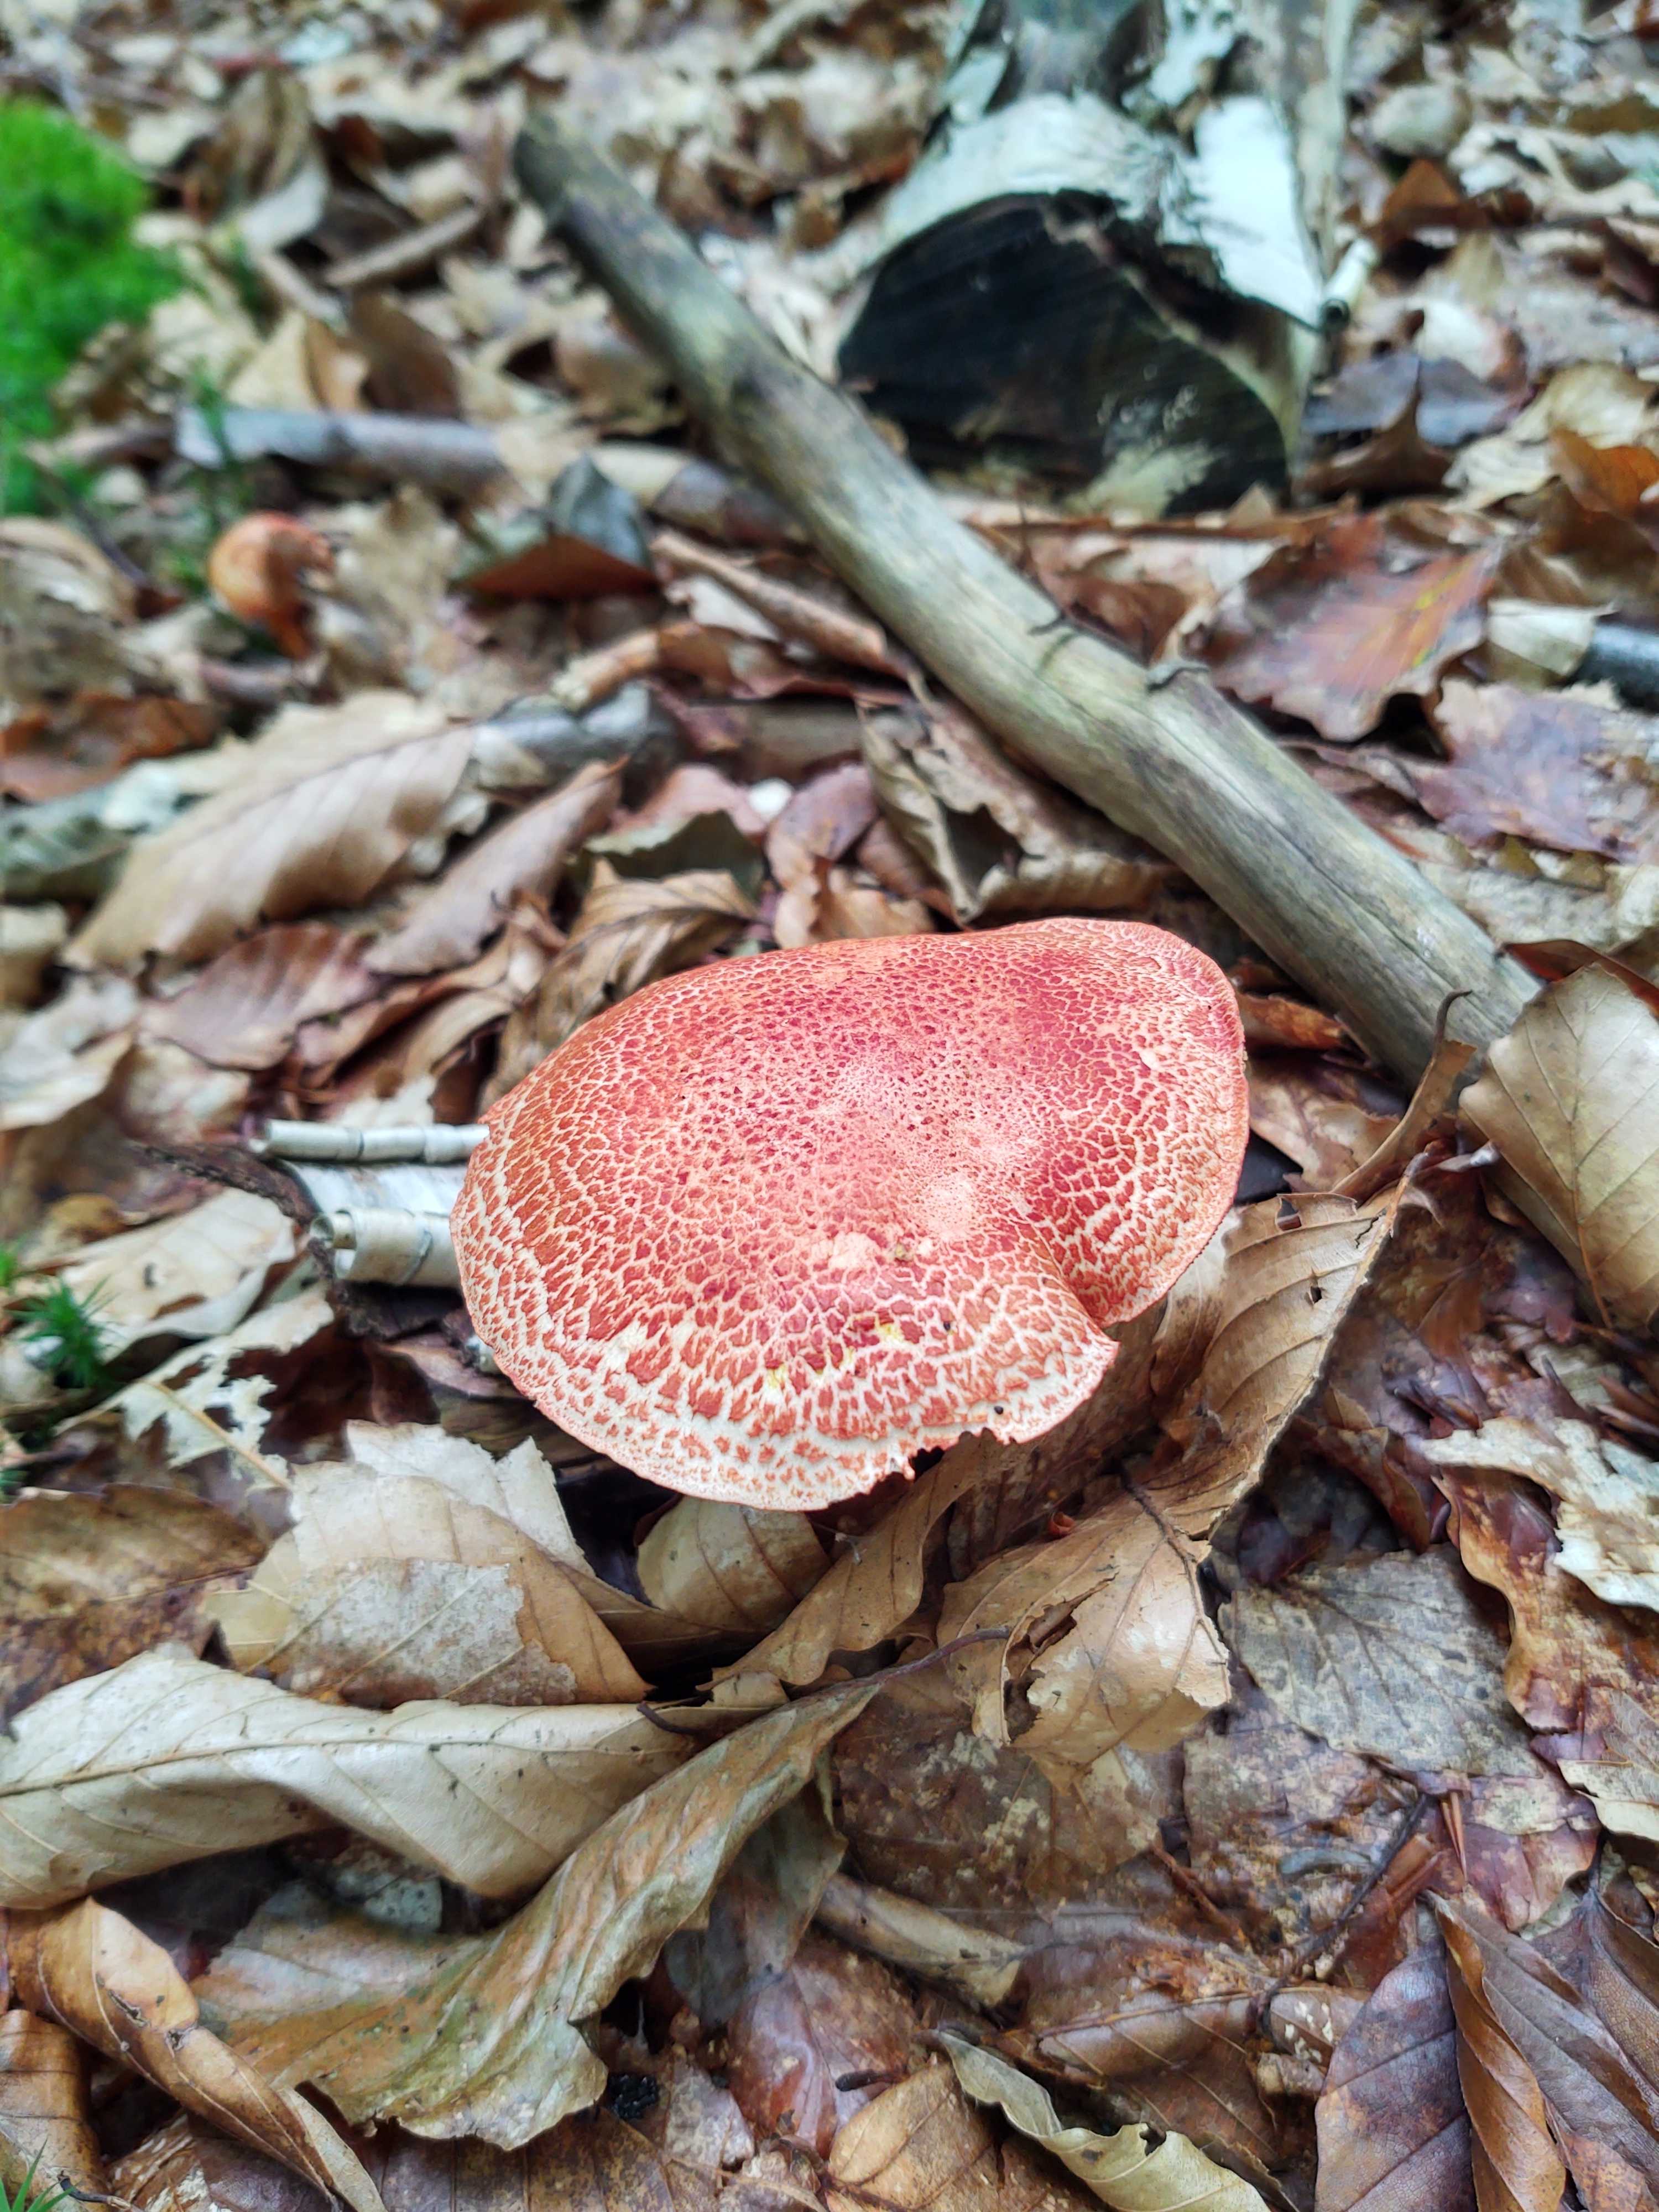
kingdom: Fungi
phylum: Basidiomycota
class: Agaricomycetes
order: Agaricales
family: Cortinariaceae
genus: Cortinarius
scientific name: Cortinarius bolaris
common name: cinnoberskællet slørhat
